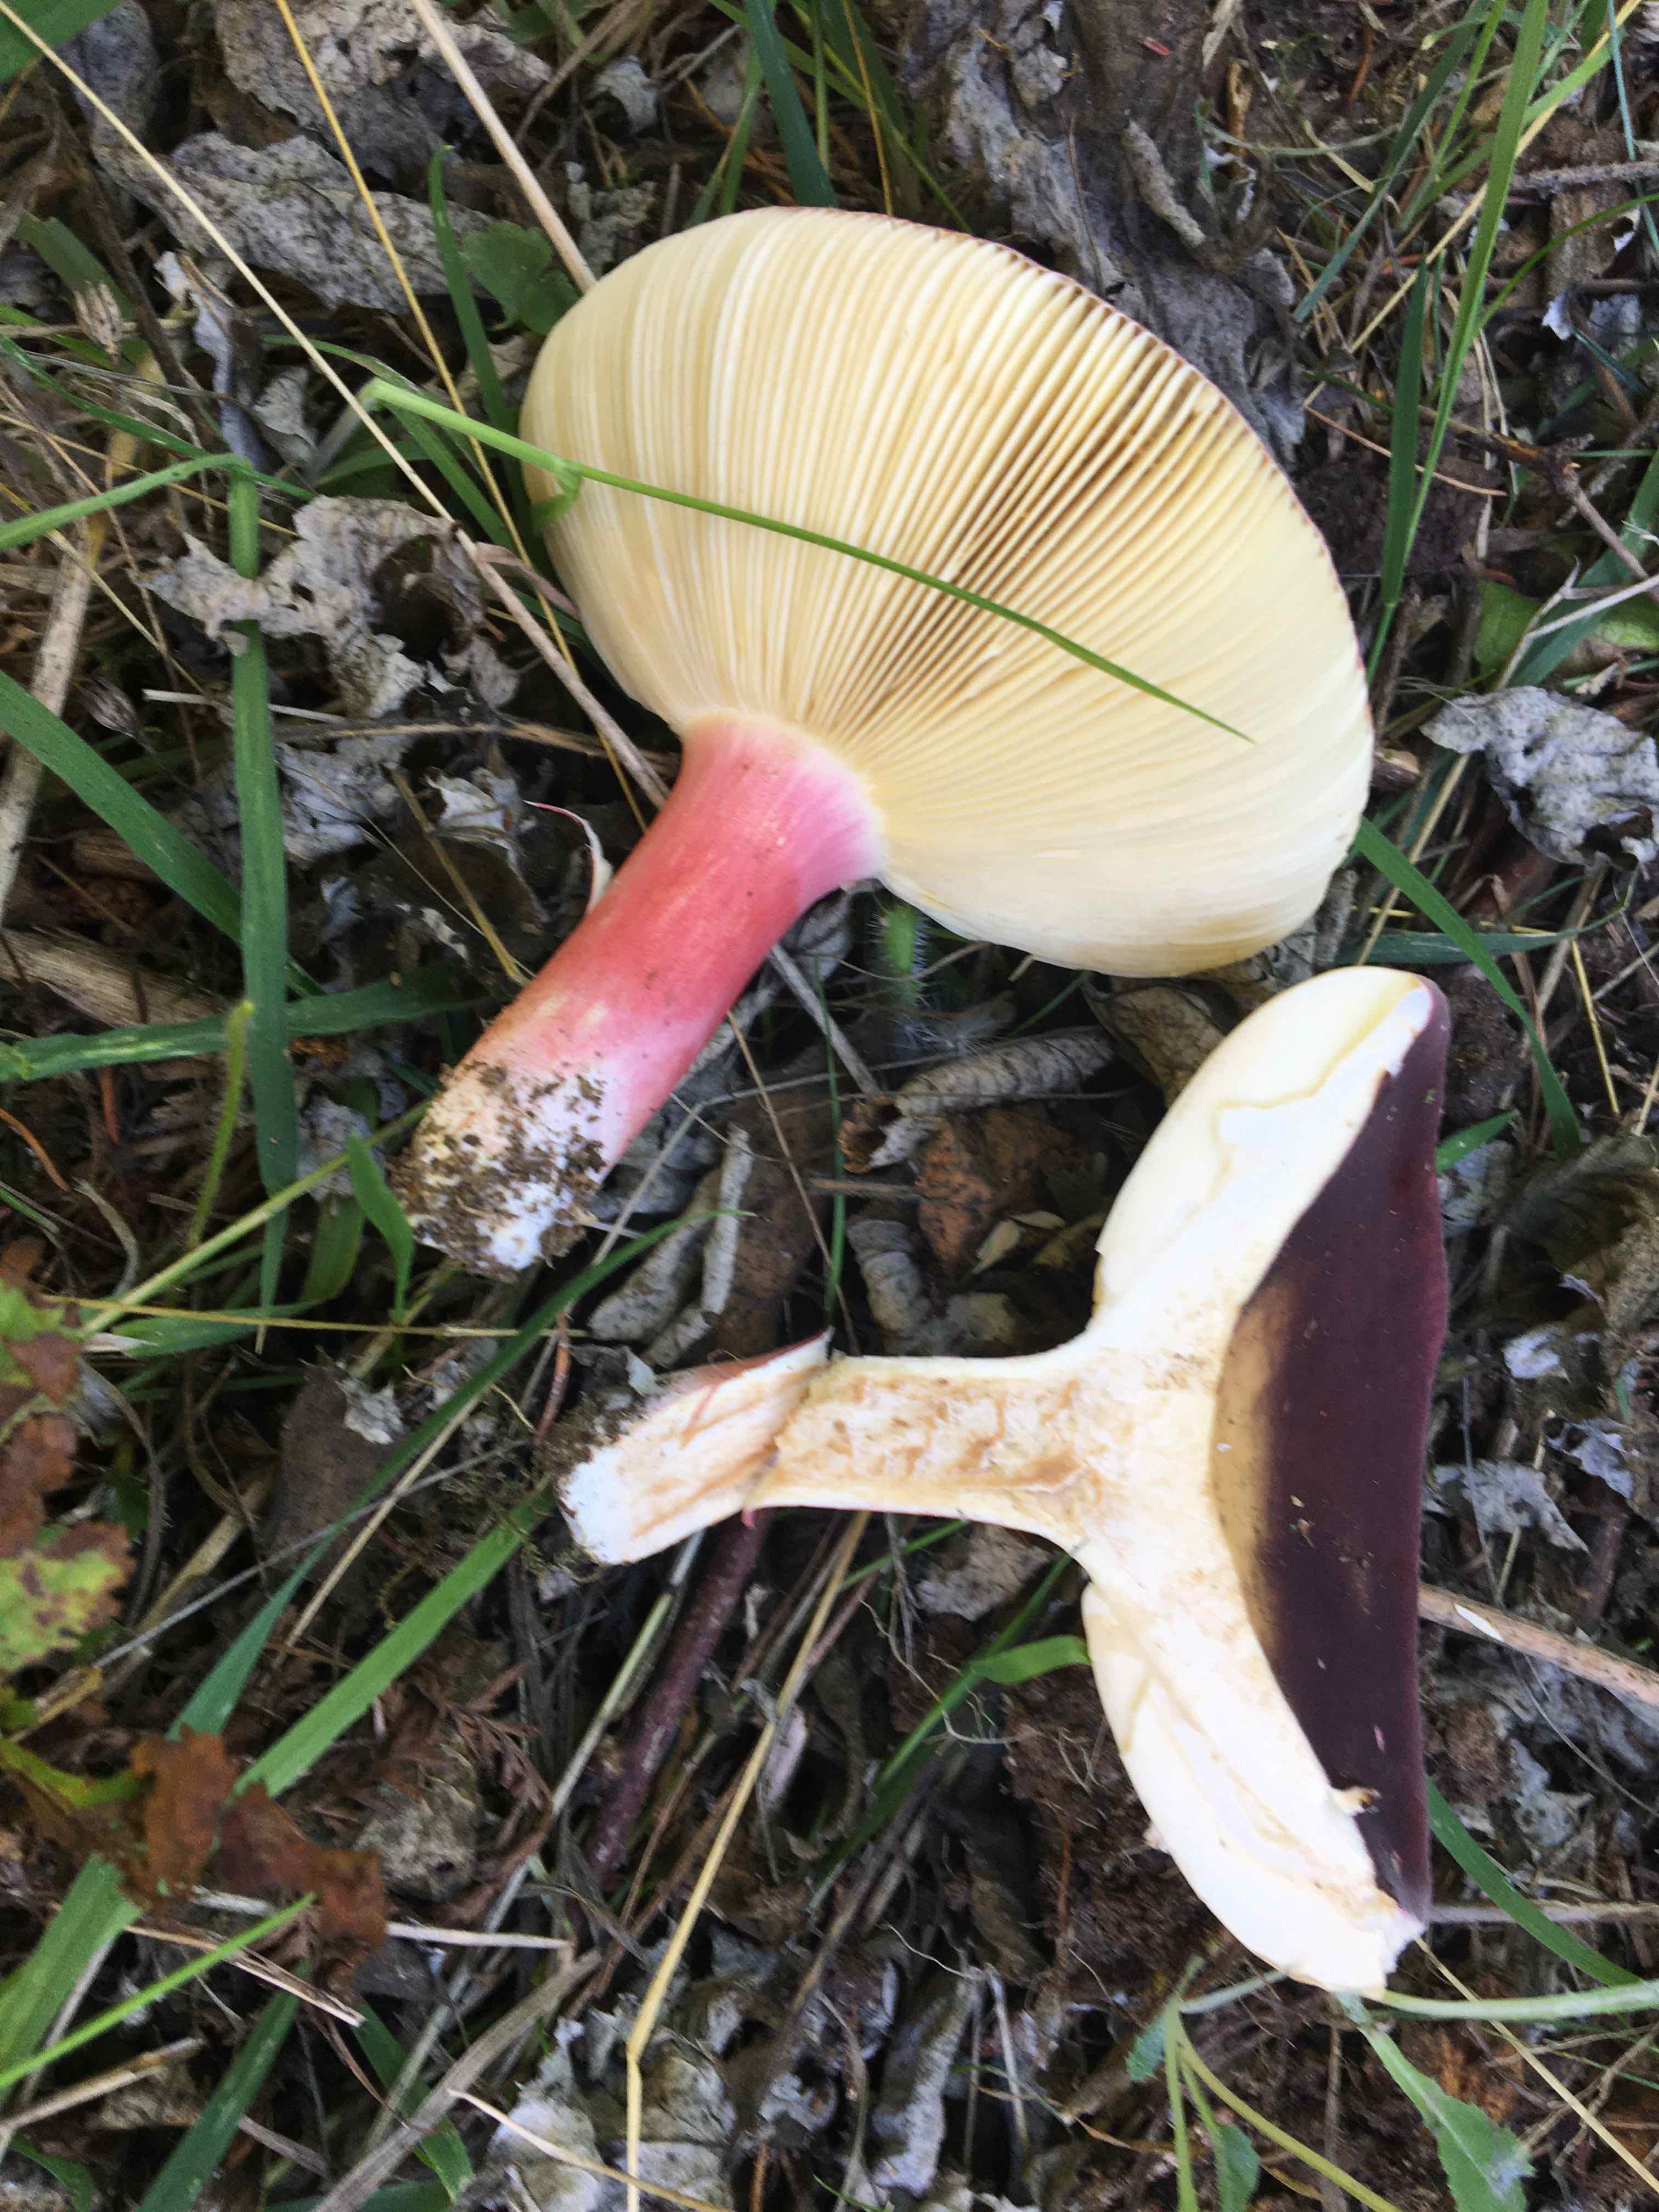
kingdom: Fungi
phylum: Basidiomycota
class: Agaricomycetes
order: Russulales
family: Russulaceae
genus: Russula
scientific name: Russula xerampelina
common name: hummer-skørhat
